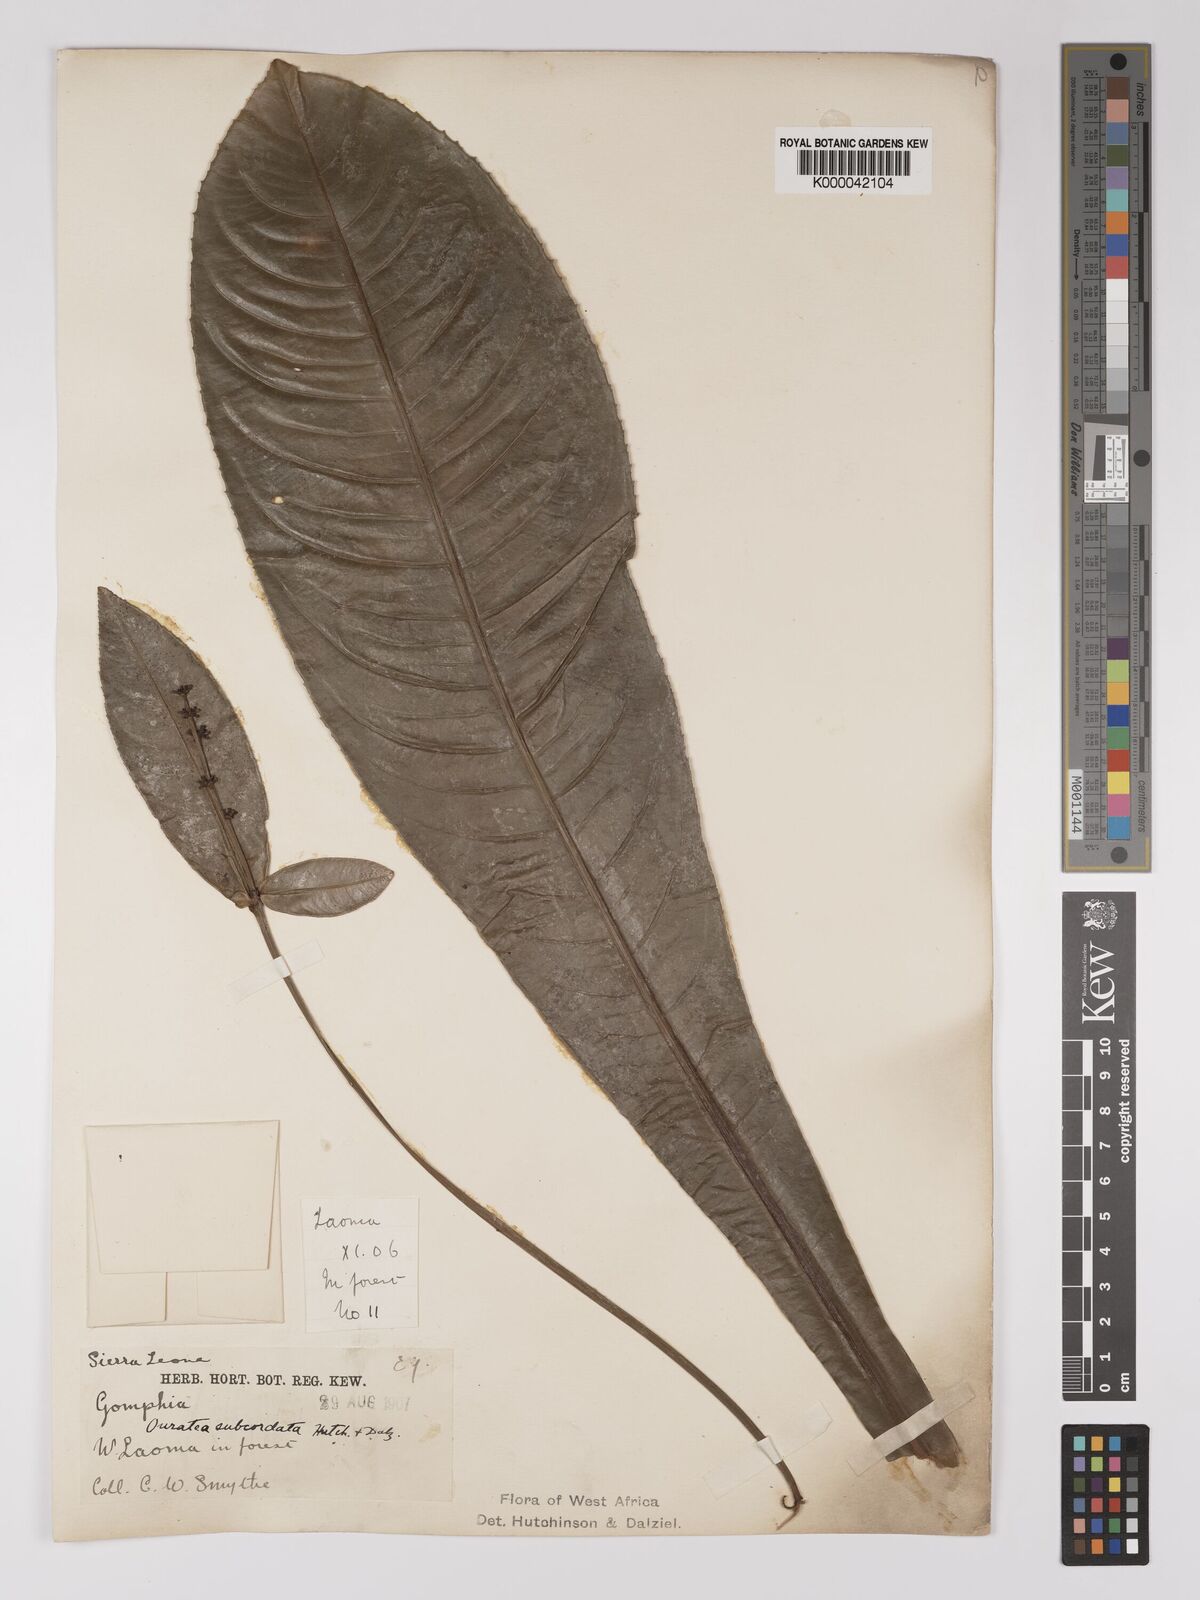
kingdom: Plantae
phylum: Tracheophyta
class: Magnoliopsida
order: Malpighiales
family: Ochnaceae
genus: Campylospermum
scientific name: Campylospermum subcordatum
